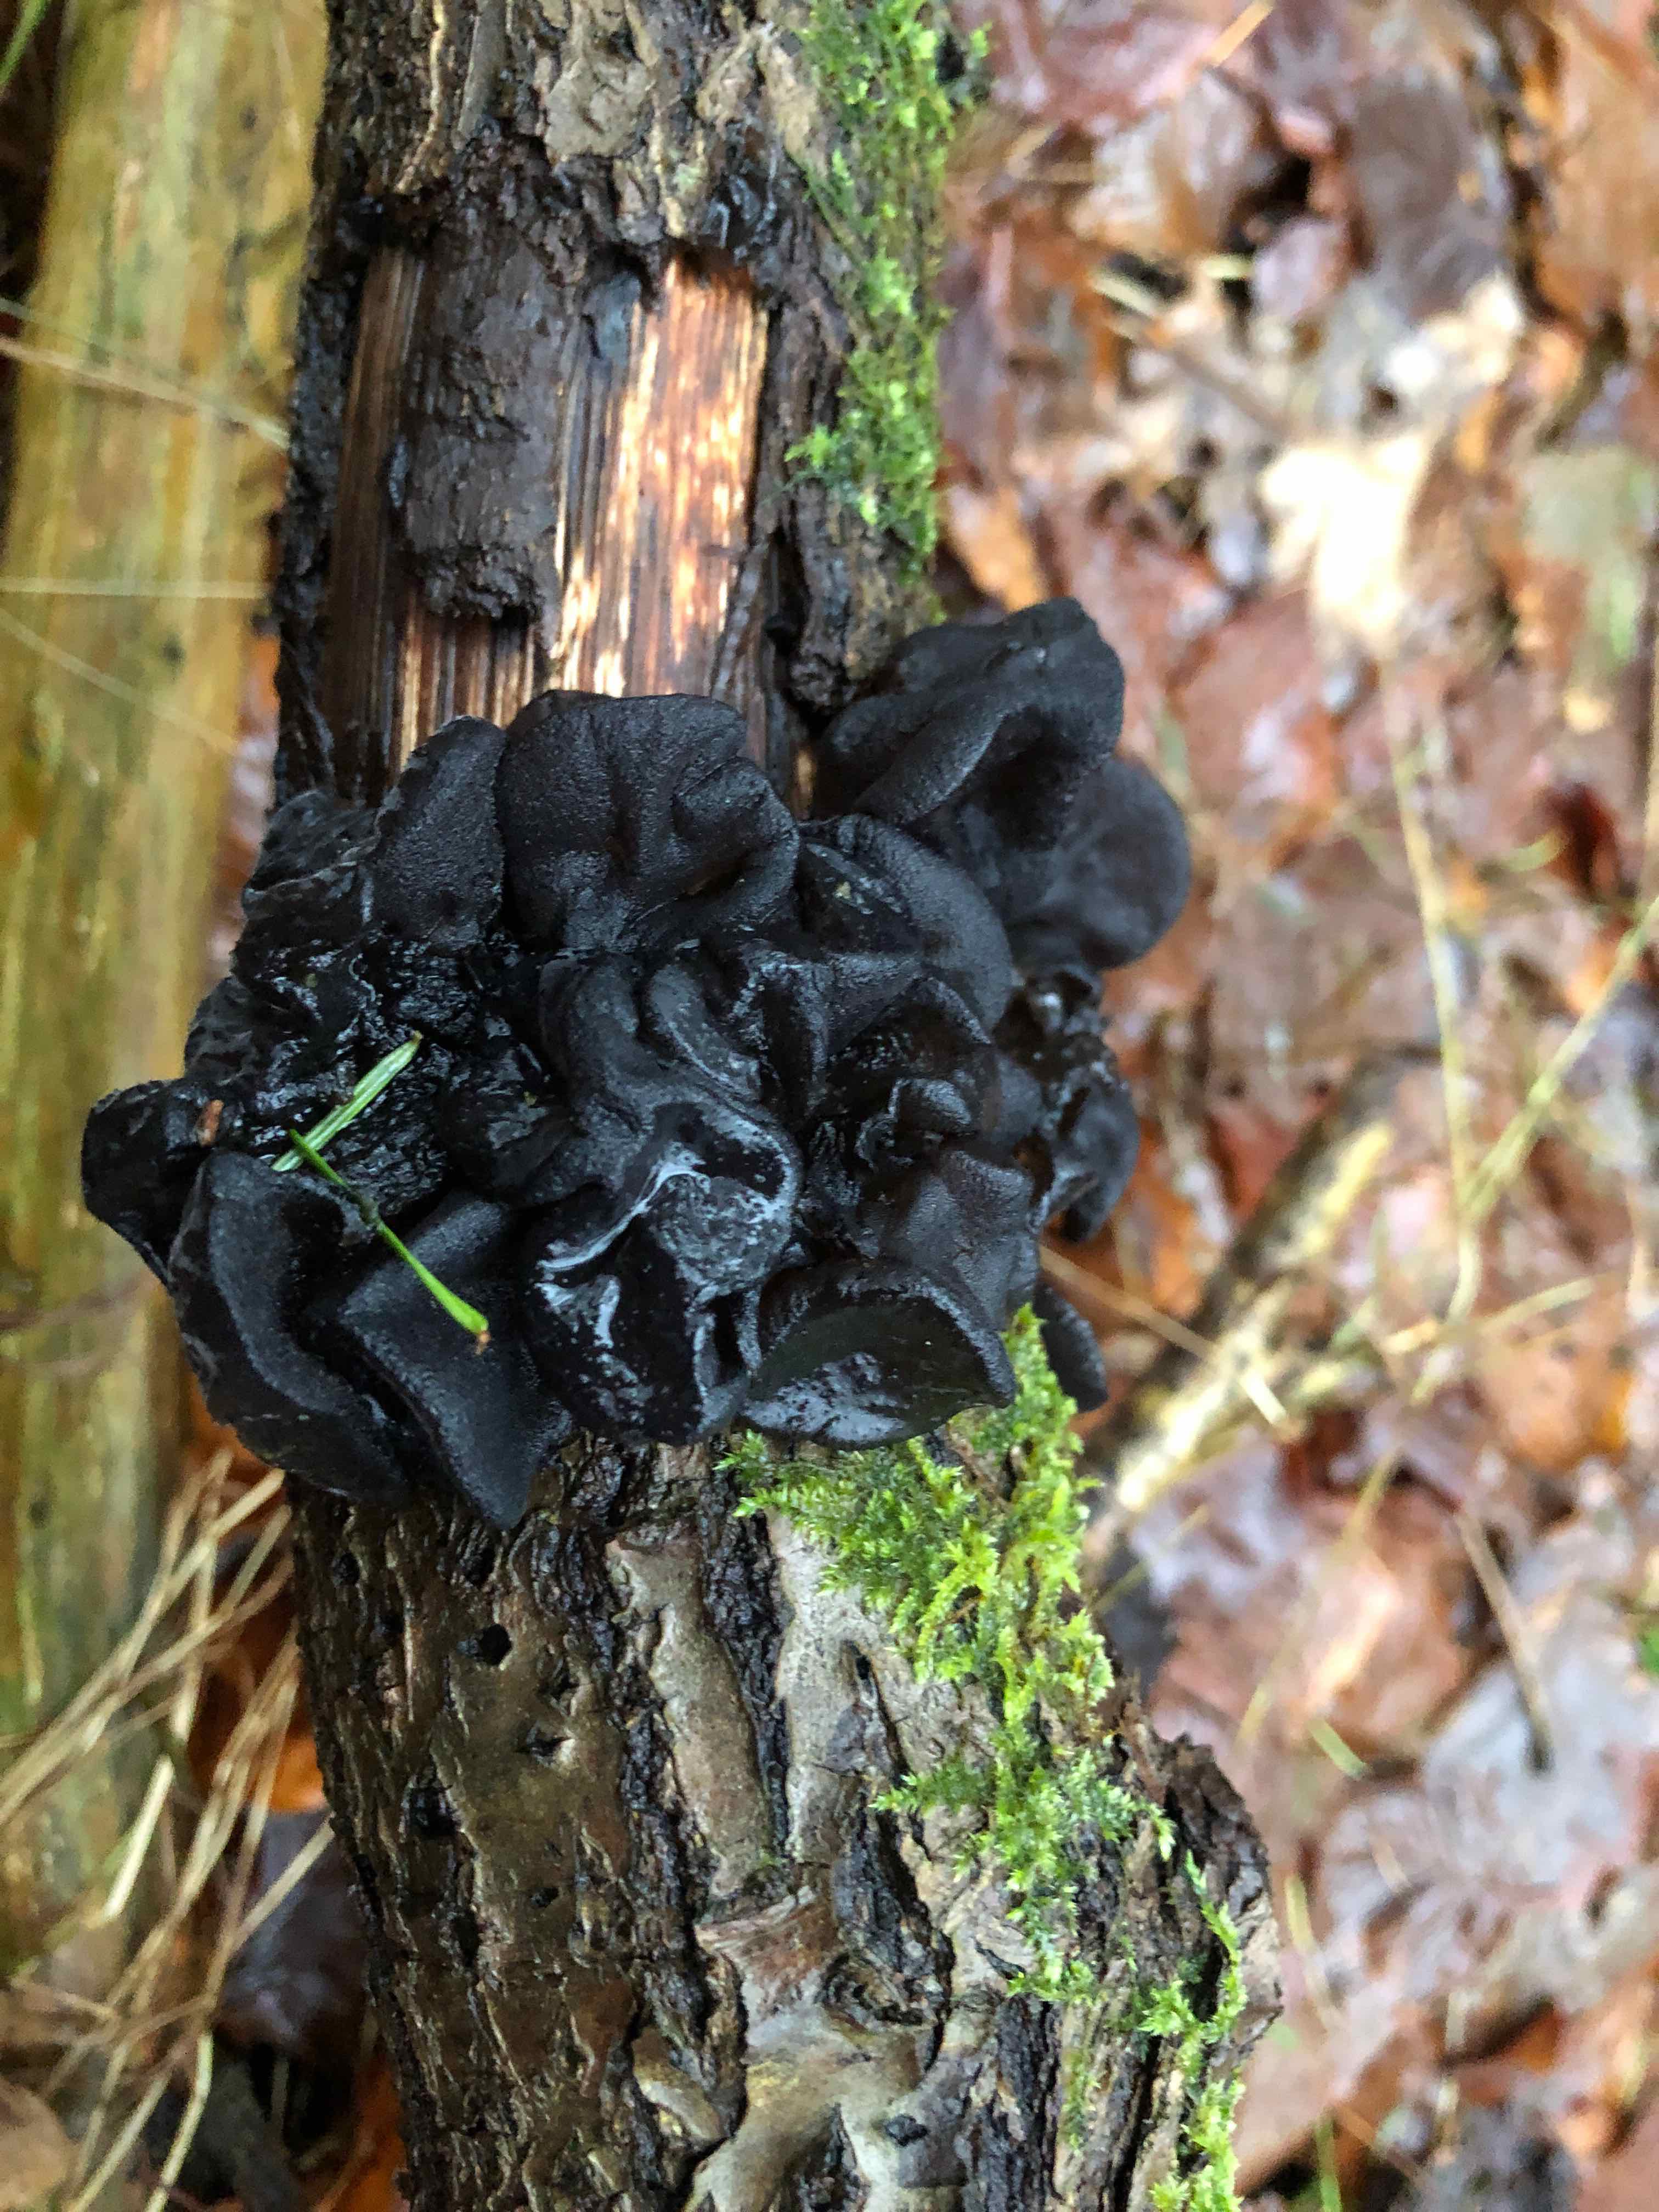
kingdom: Fungi
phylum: Basidiomycota
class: Agaricomycetes
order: Auriculariales
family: Auriculariaceae
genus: Exidia
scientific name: Exidia glandulosa
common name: ege-bævretop
